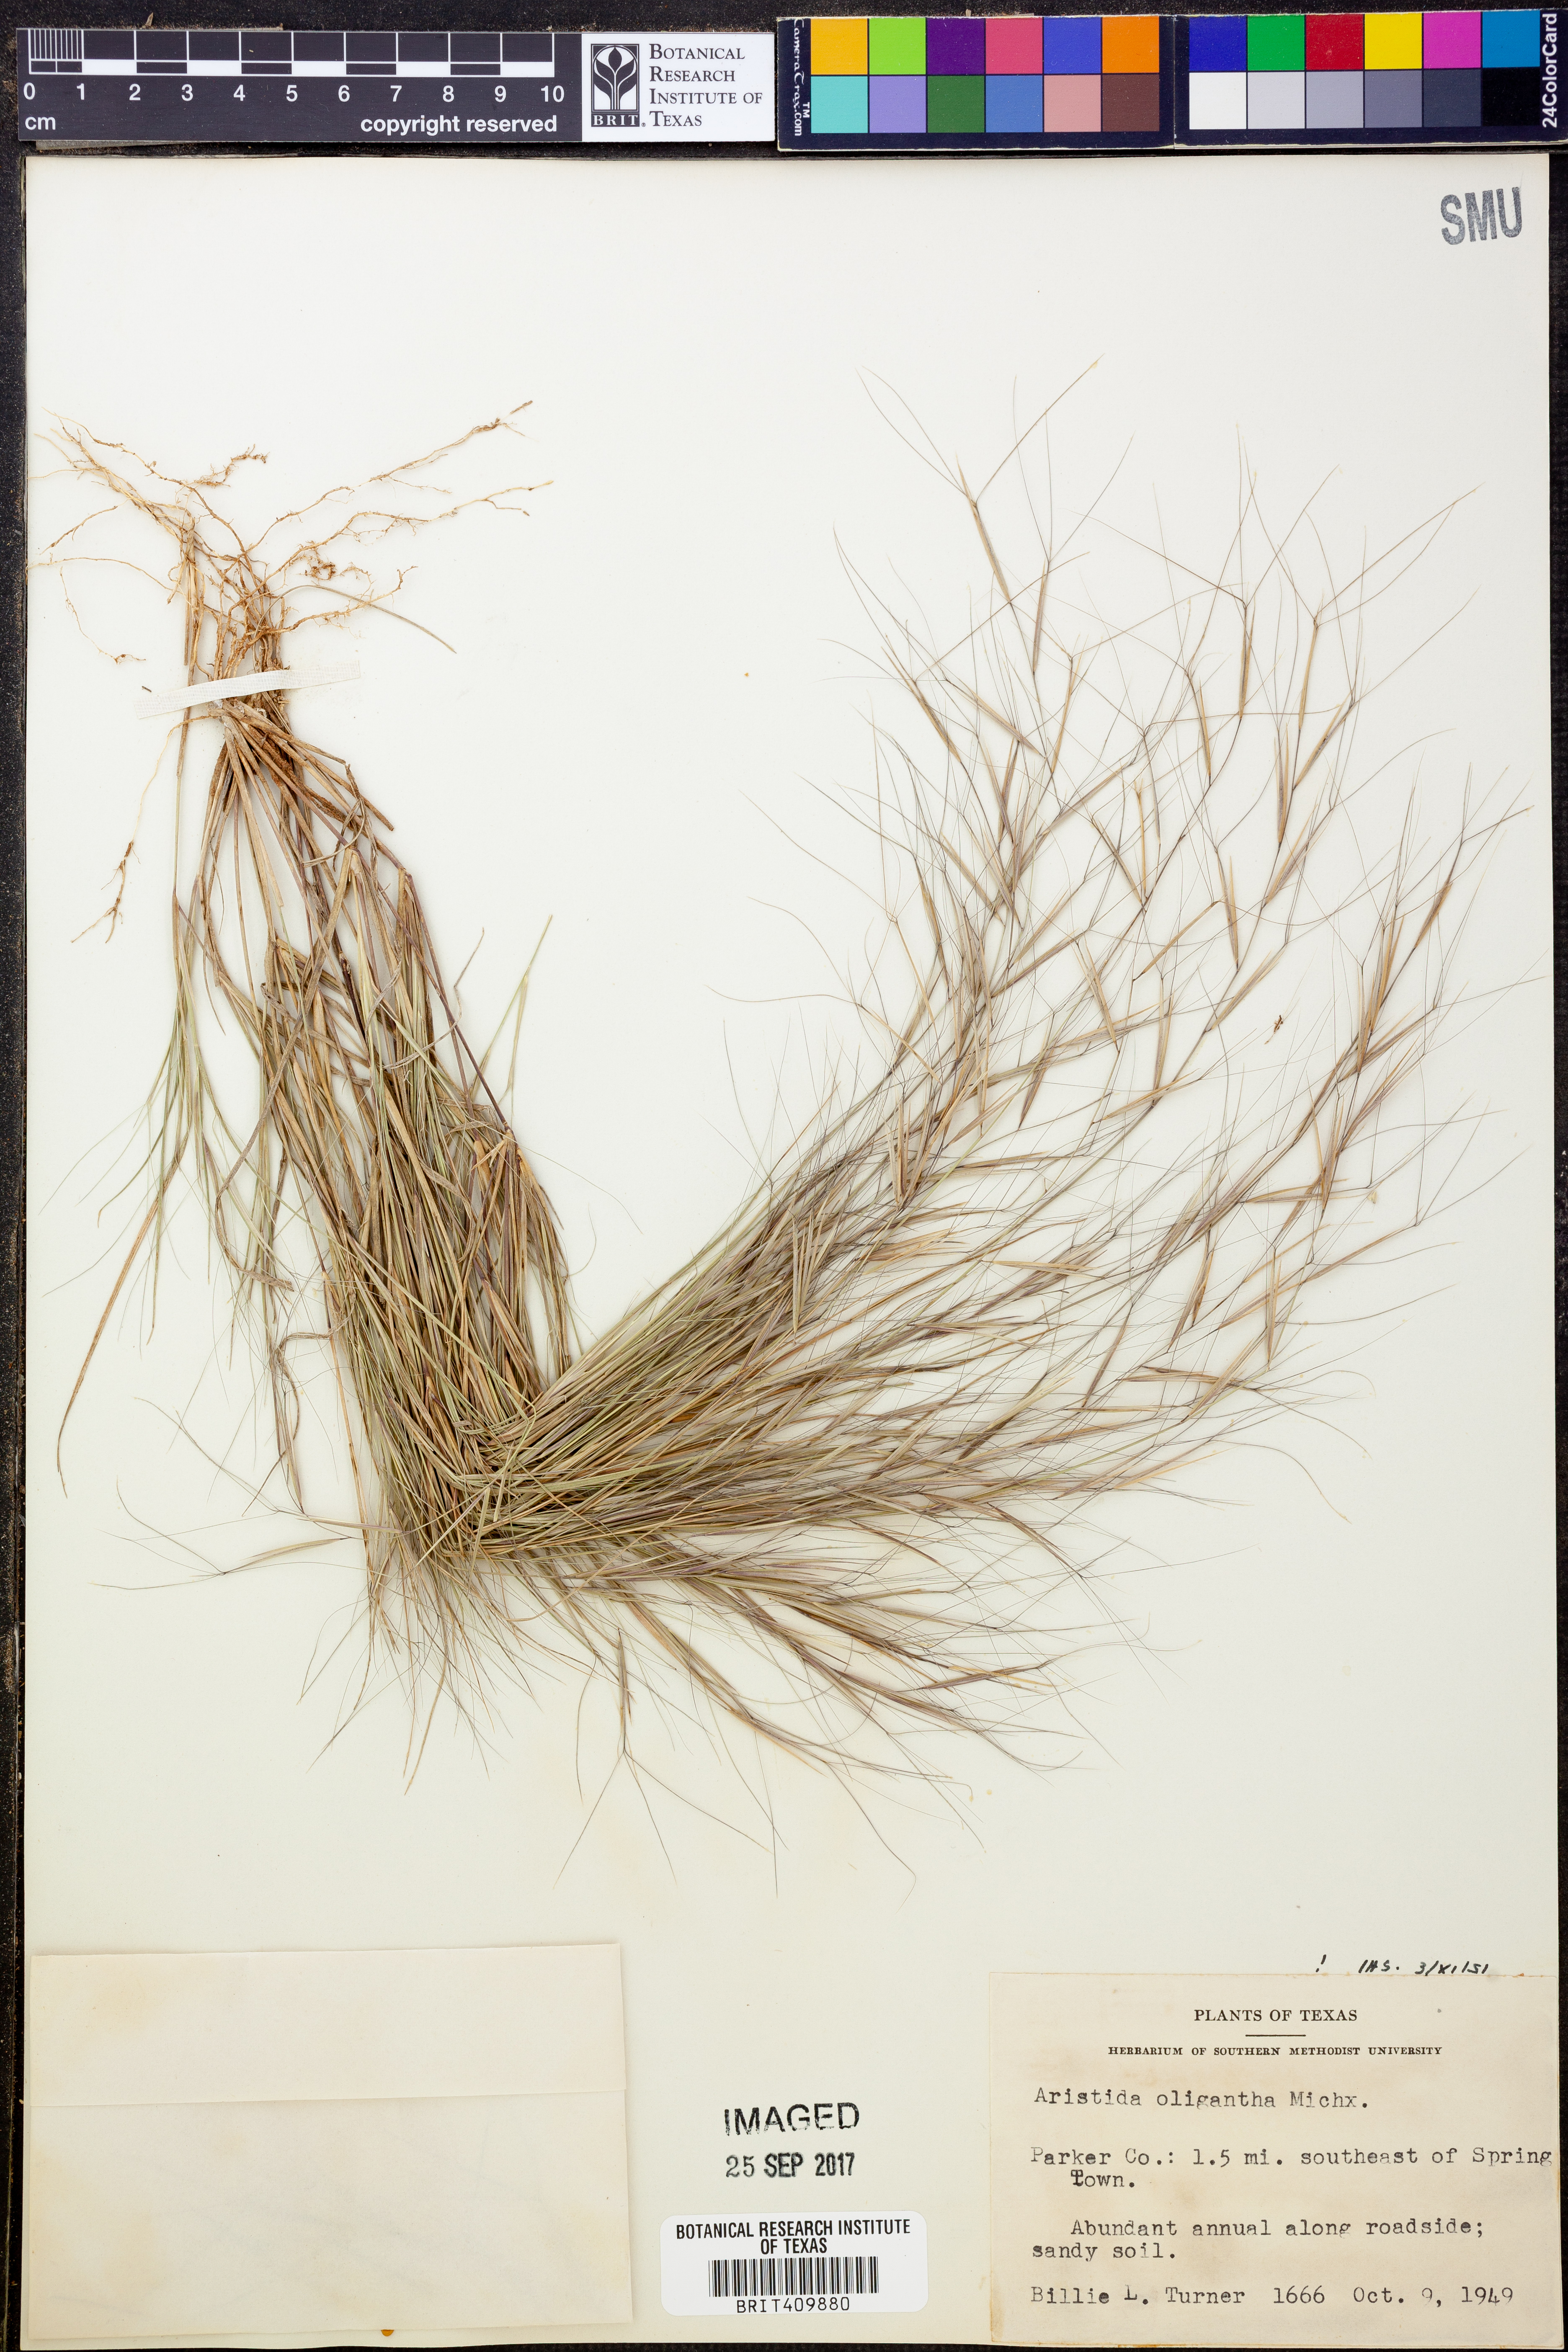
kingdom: Plantae
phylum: Tracheophyta
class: Liliopsida
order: Poales
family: Poaceae
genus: Aristida
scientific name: Aristida oligantha
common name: Few-flowered aristida
